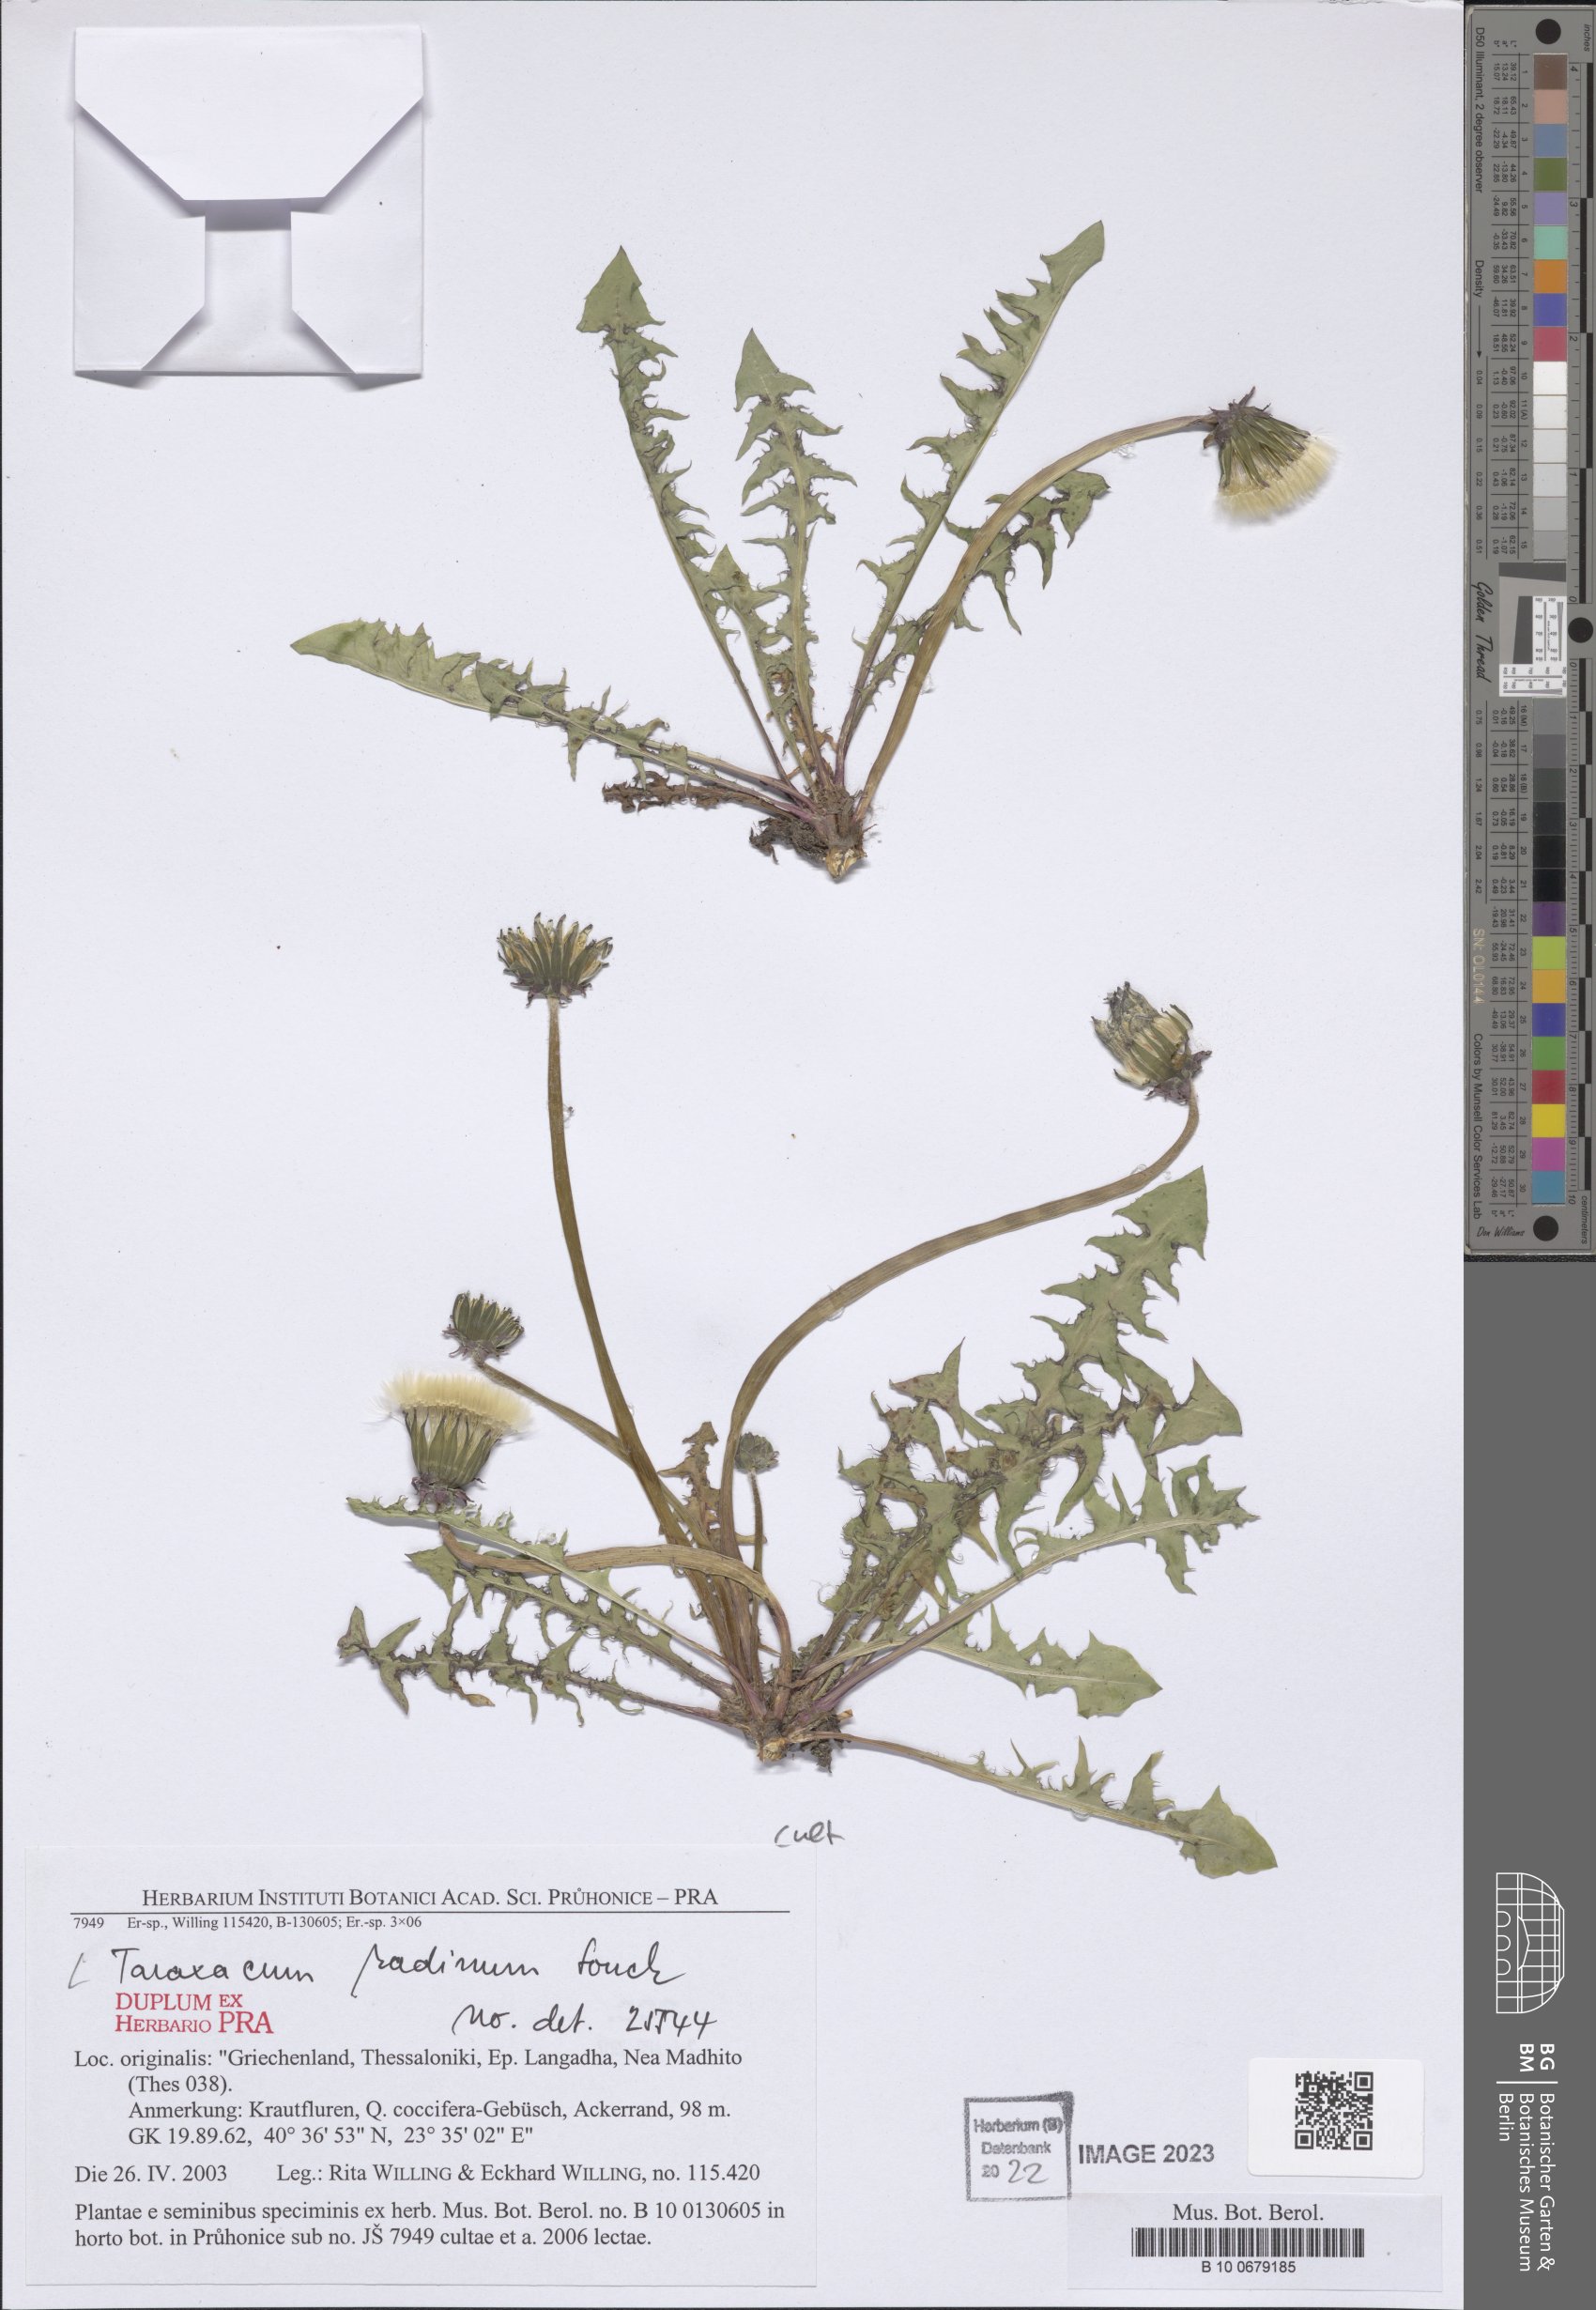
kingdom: Plantae
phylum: Tracheophyta
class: Magnoliopsida
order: Asterales
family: Asteraceae
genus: Taraxacum
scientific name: Taraxacum radinum
